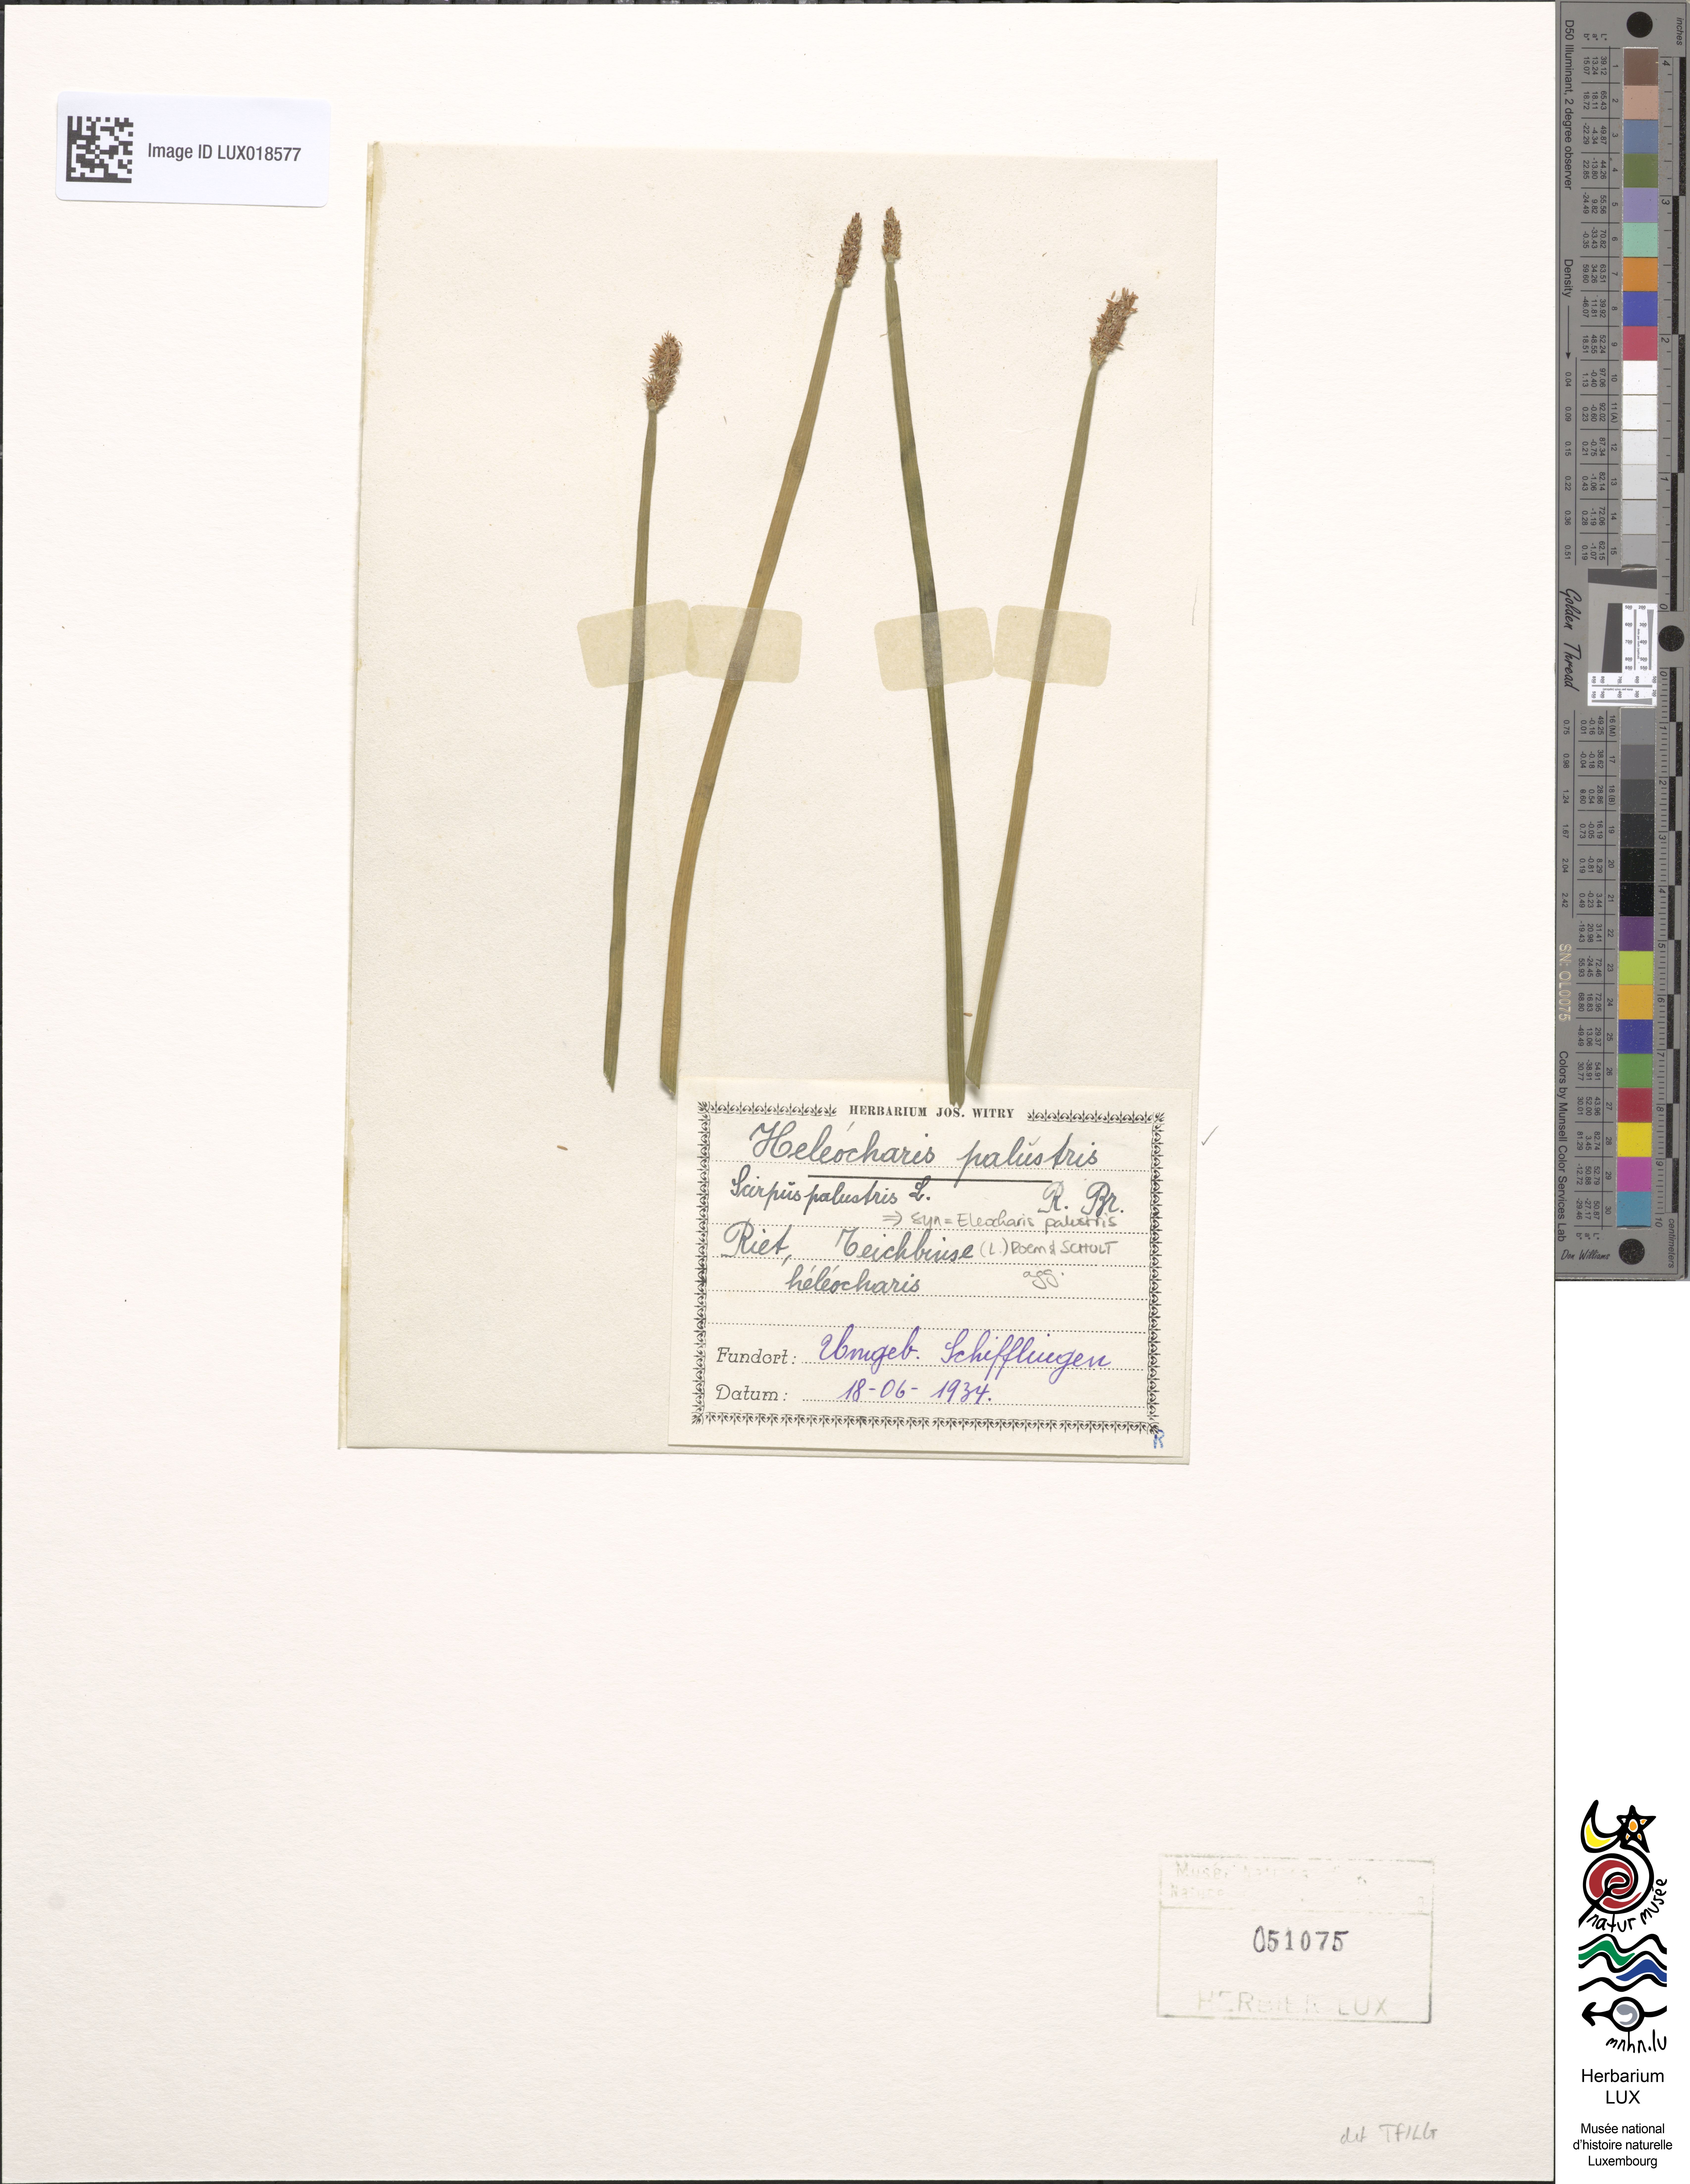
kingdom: Plantae
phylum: Tracheophyta
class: Liliopsida
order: Poales
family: Cyperaceae
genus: Eleocharis
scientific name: Eleocharis palustris
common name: Common spike-rush
